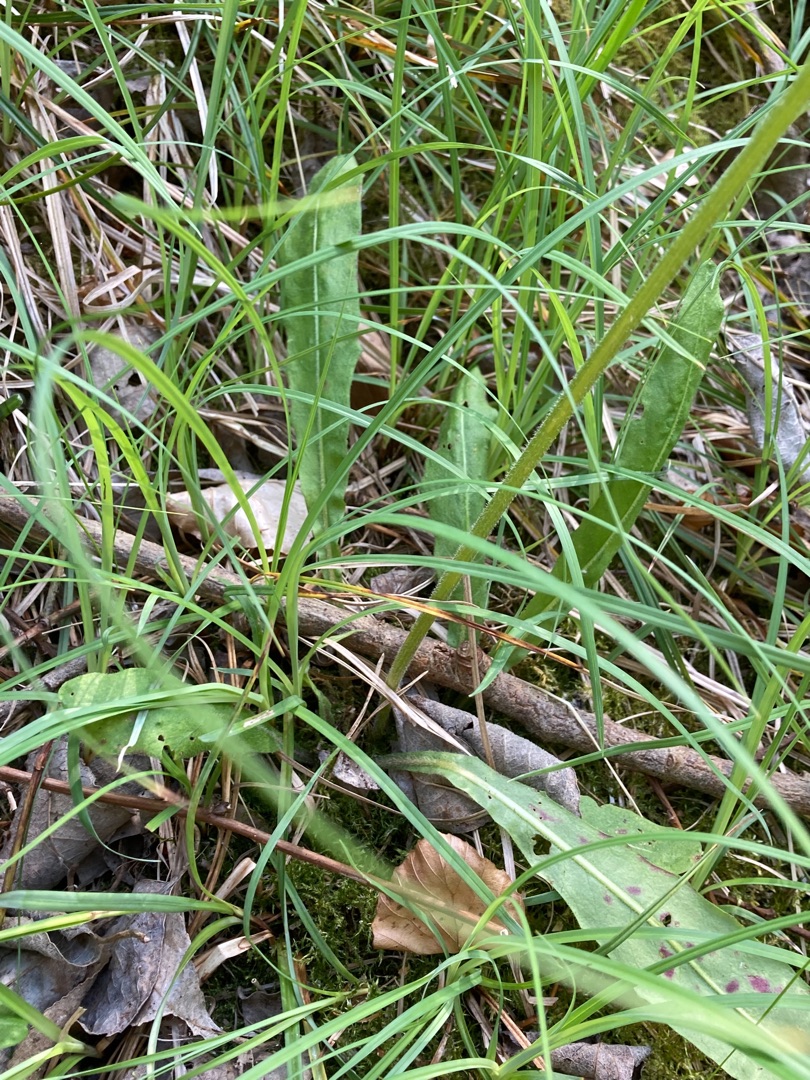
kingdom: Plantae
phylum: Tracheophyta
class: Magnoliopsida
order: Asterales
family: Asteraceae
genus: Crepis
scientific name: Crepis praemorsa
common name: Afbidt høgeskæg
